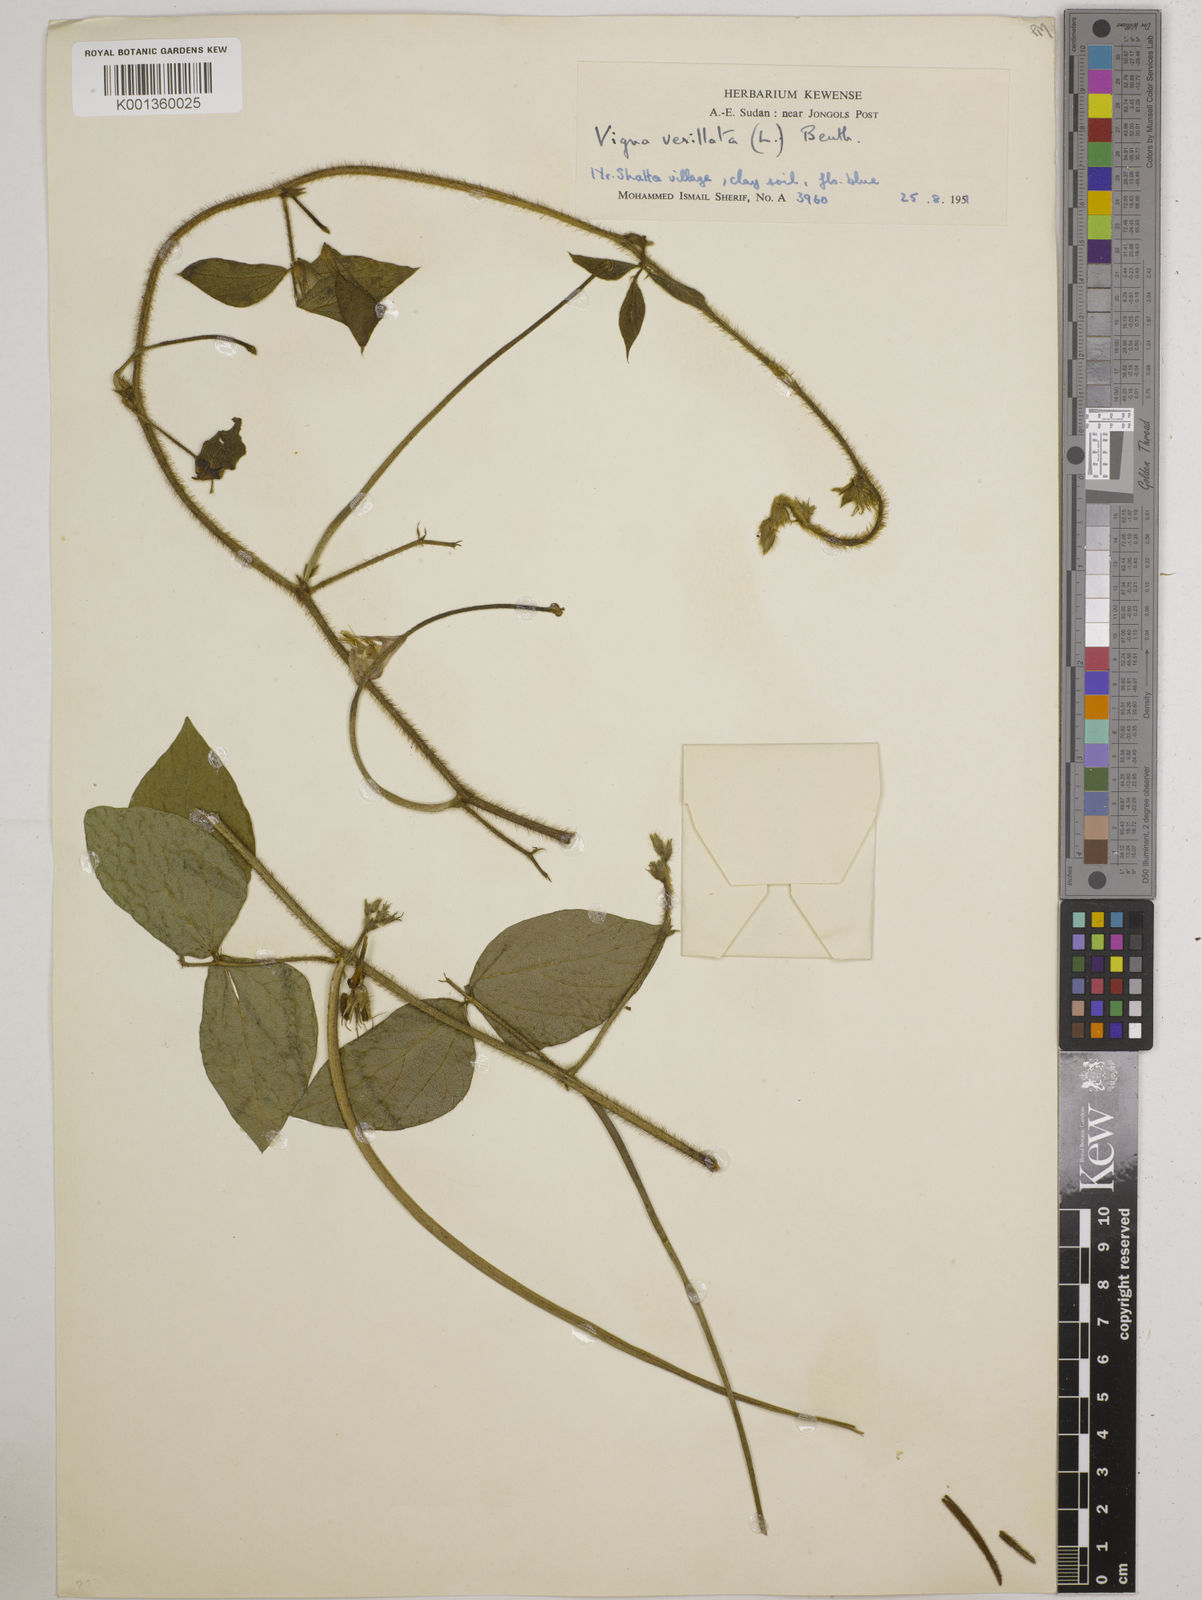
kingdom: Plantae
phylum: Tracheophyta
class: Magnoliopsida
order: Fabales
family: Fabaceae
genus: Vigna
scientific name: Vigna vexillata
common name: Zombi pea
